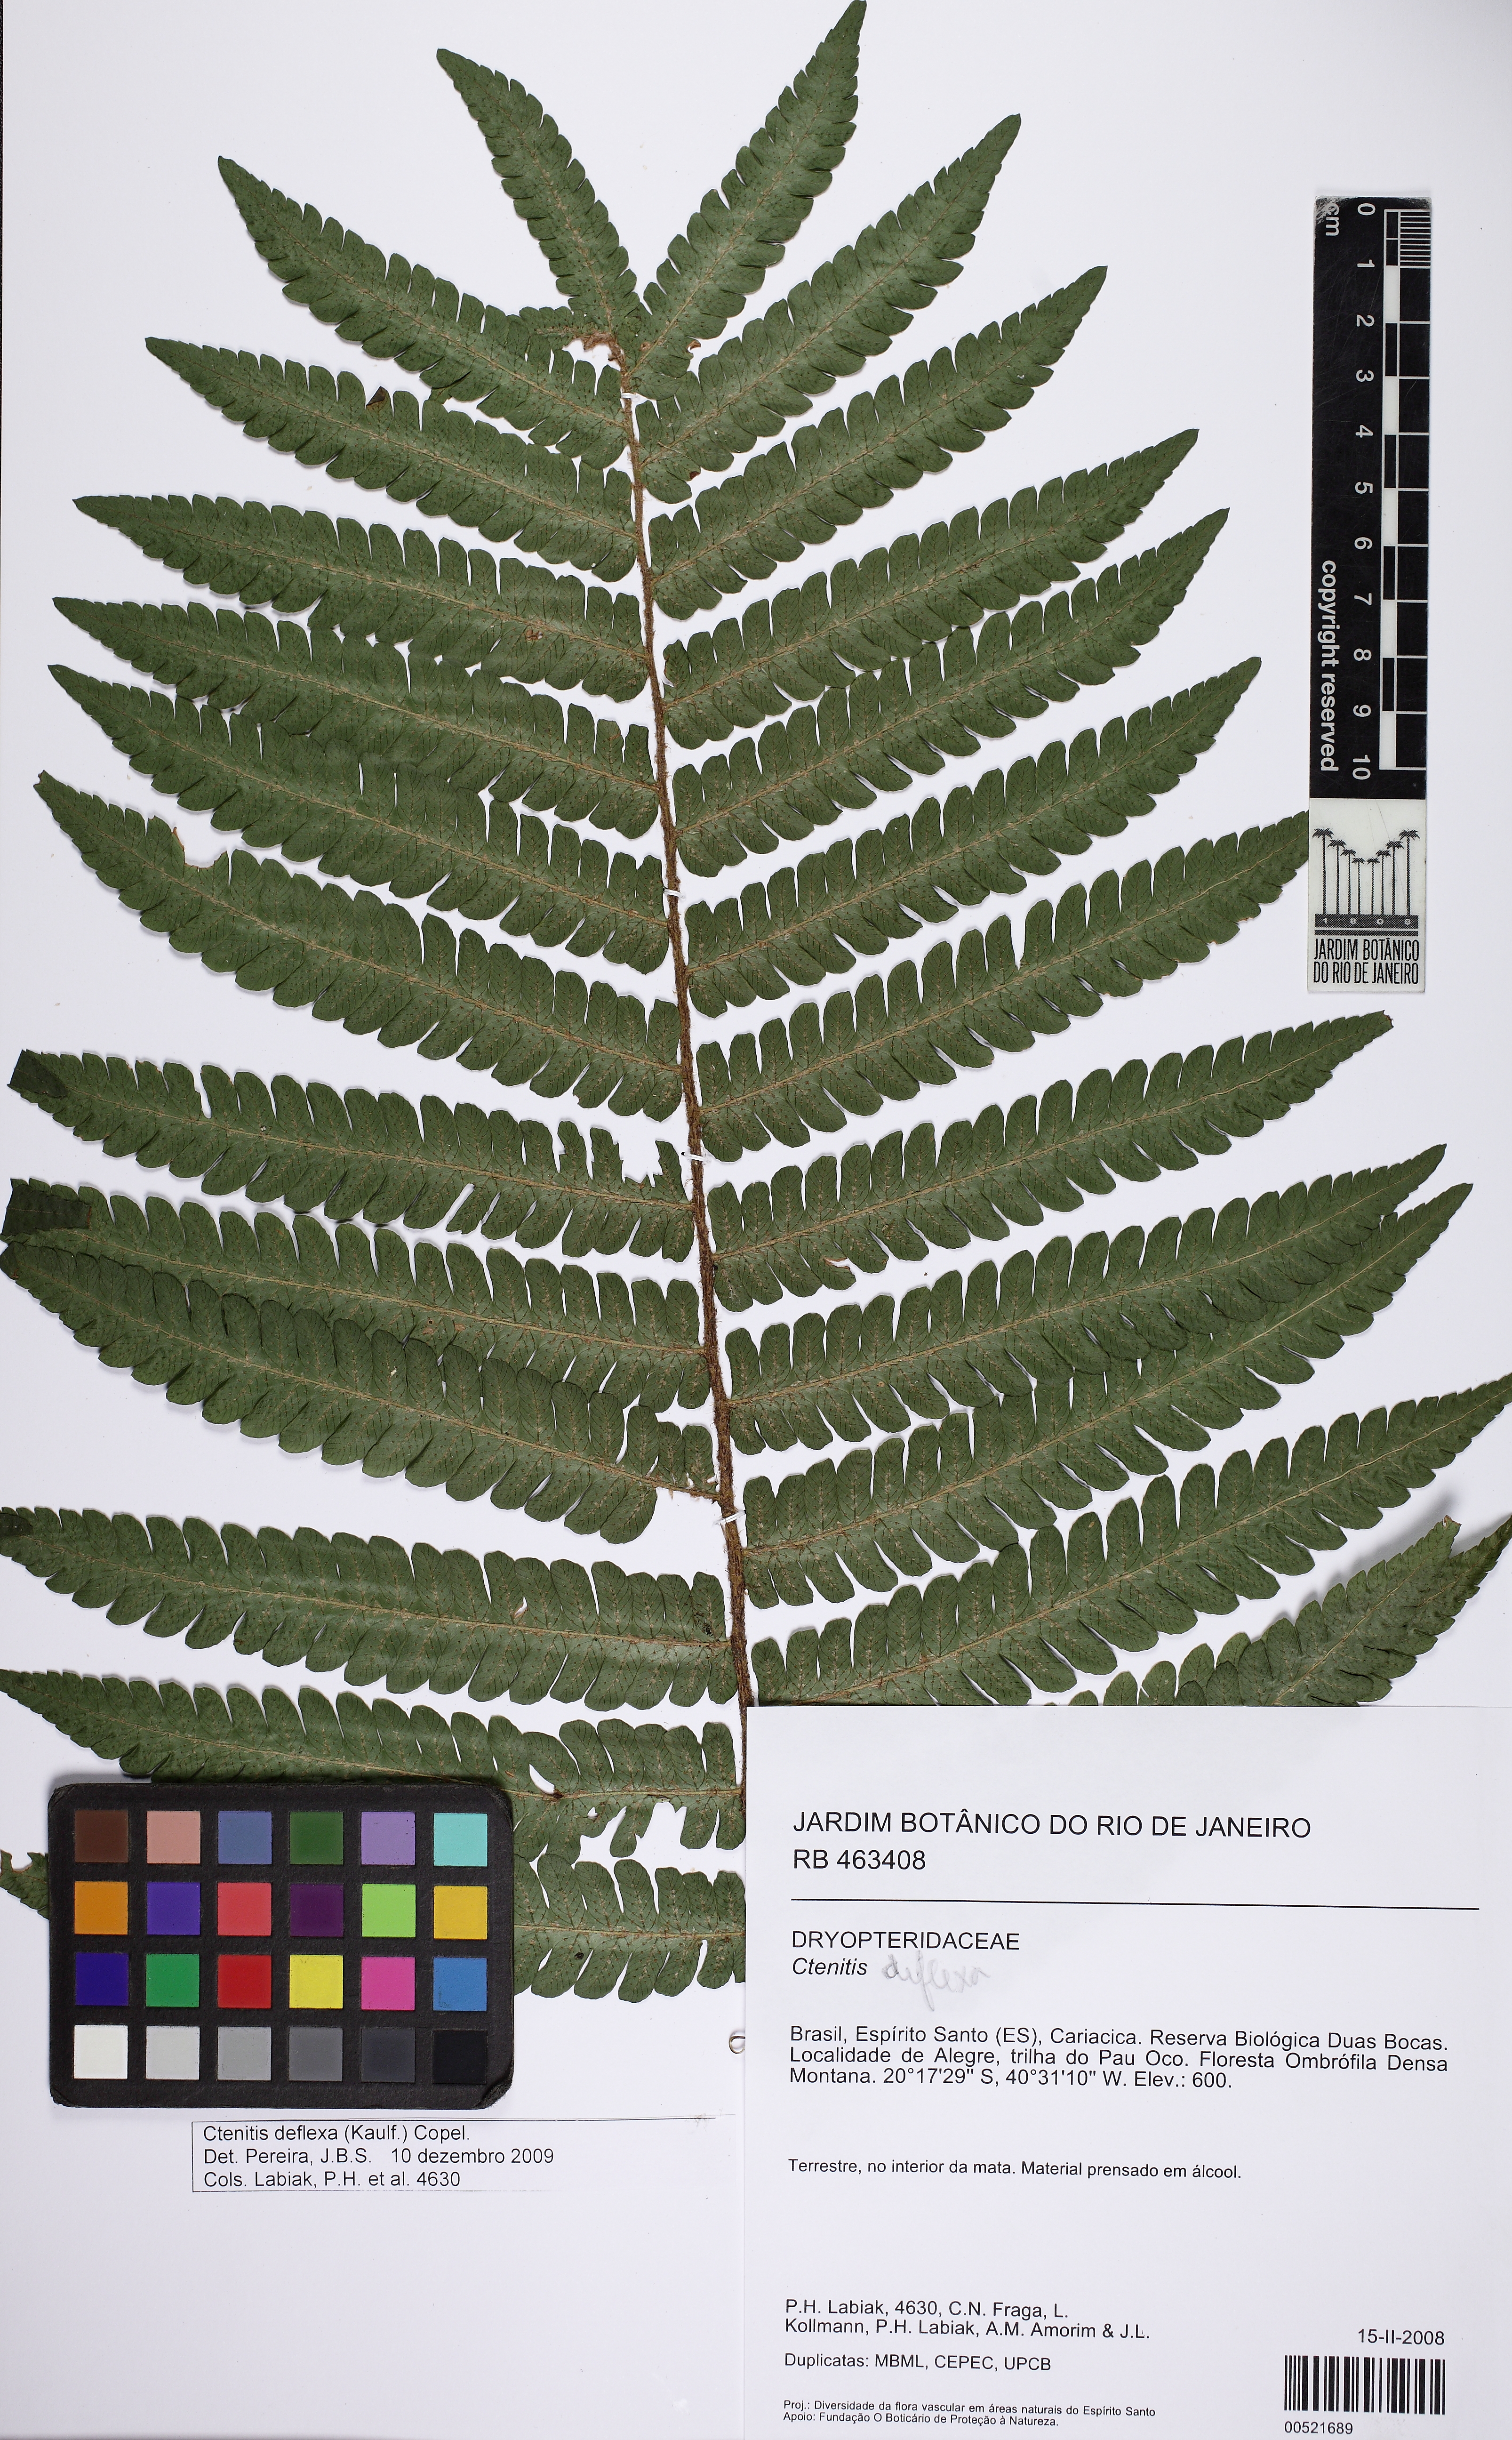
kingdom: Plantae
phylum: Tracheophyta
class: Polypodiopsida
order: Polypodiales
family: Dryopteridaceae
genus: Ctenitis
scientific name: Ctenitis deflexa
